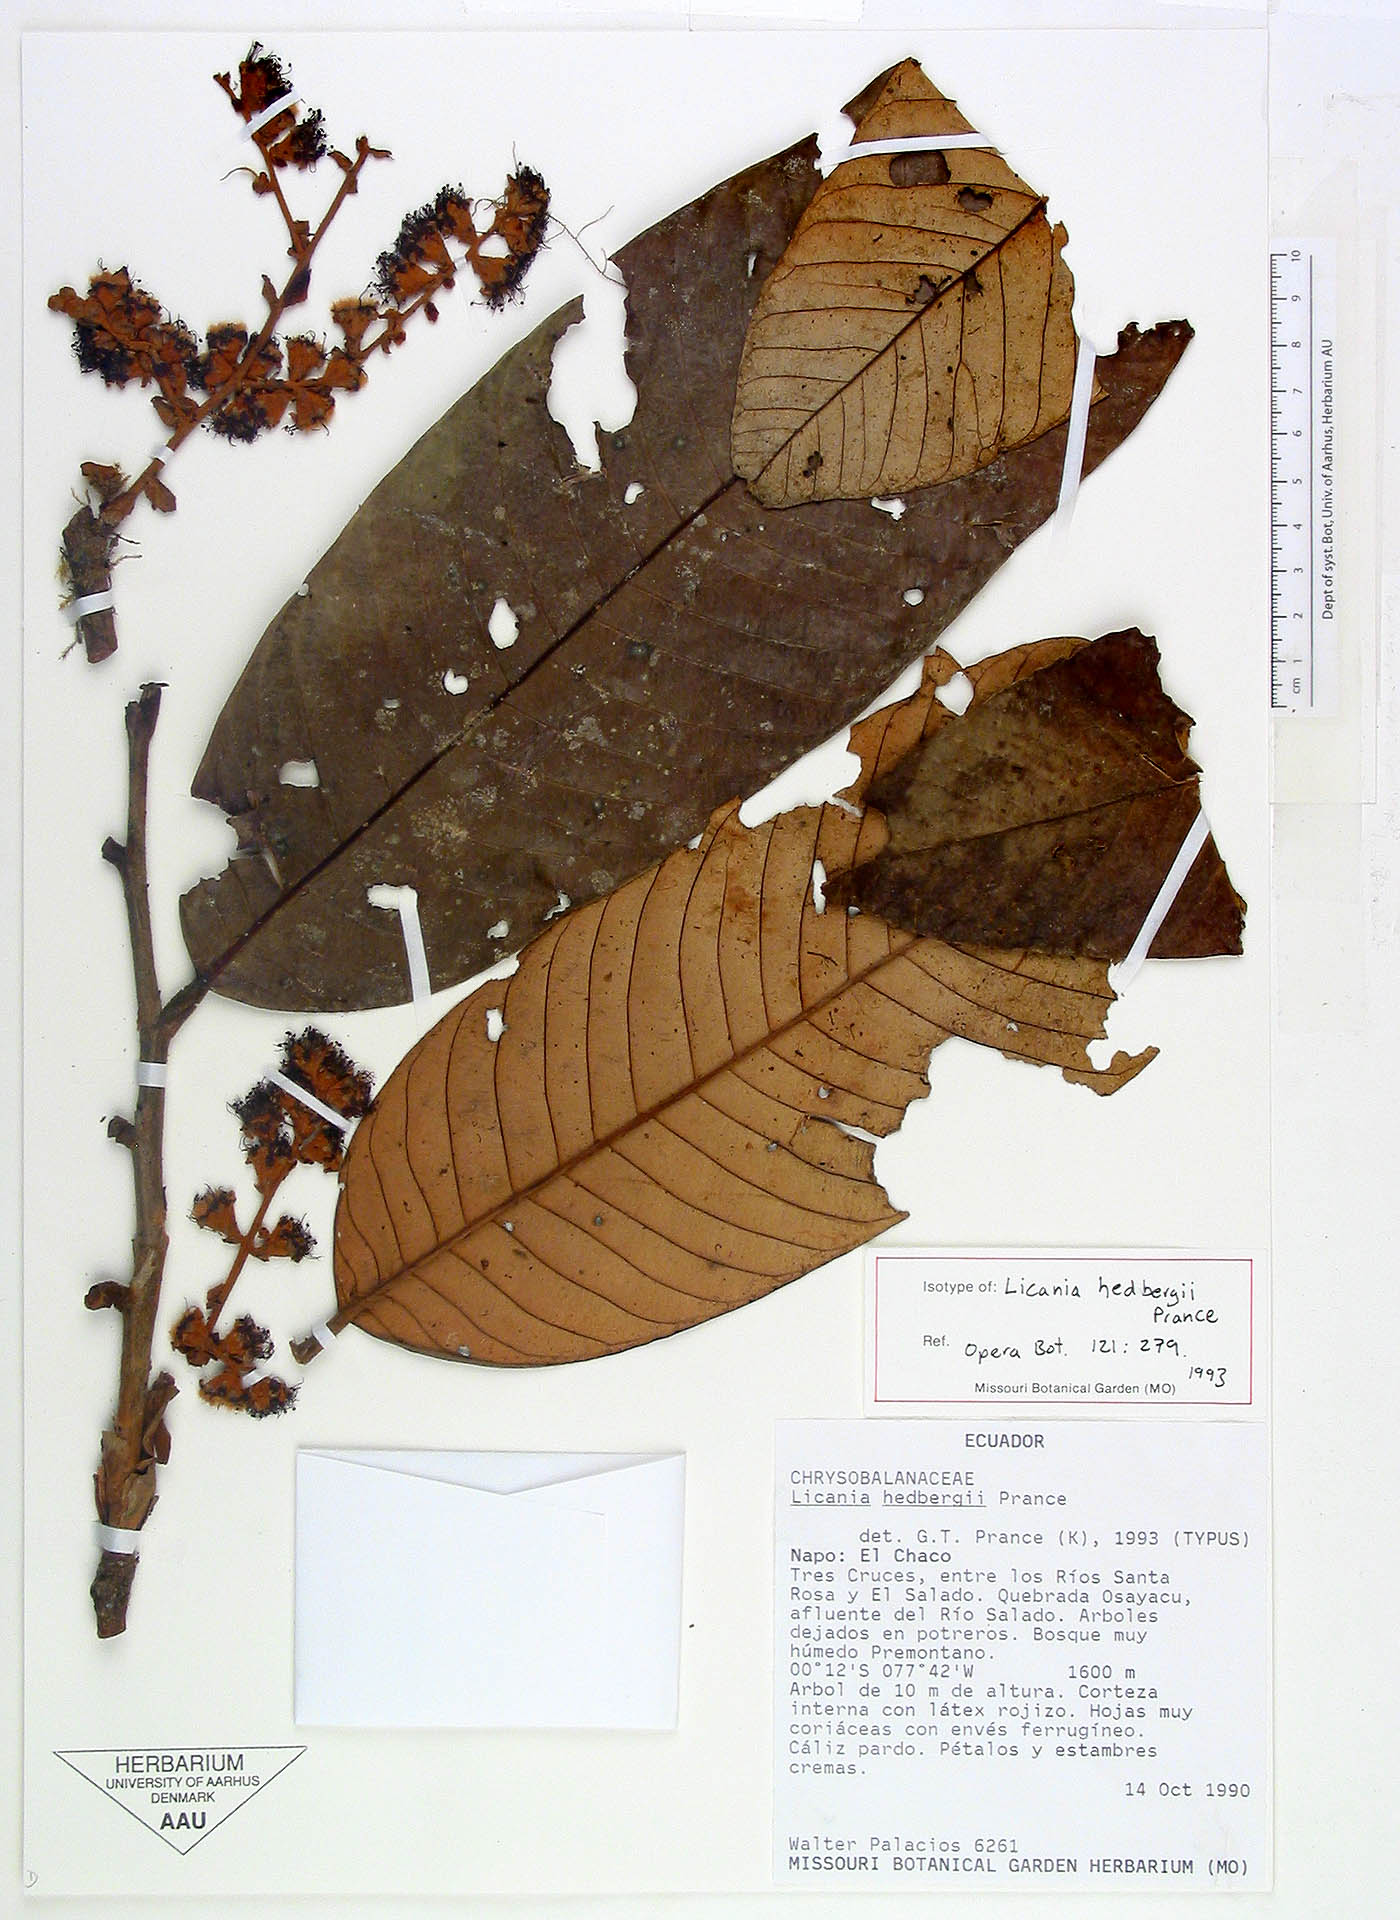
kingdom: Plantae
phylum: Tracheophyta
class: Magnoliopsida
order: Malpighiales
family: Chrysobalanaceae
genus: Moquilea
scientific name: Moquilea hedbergii
